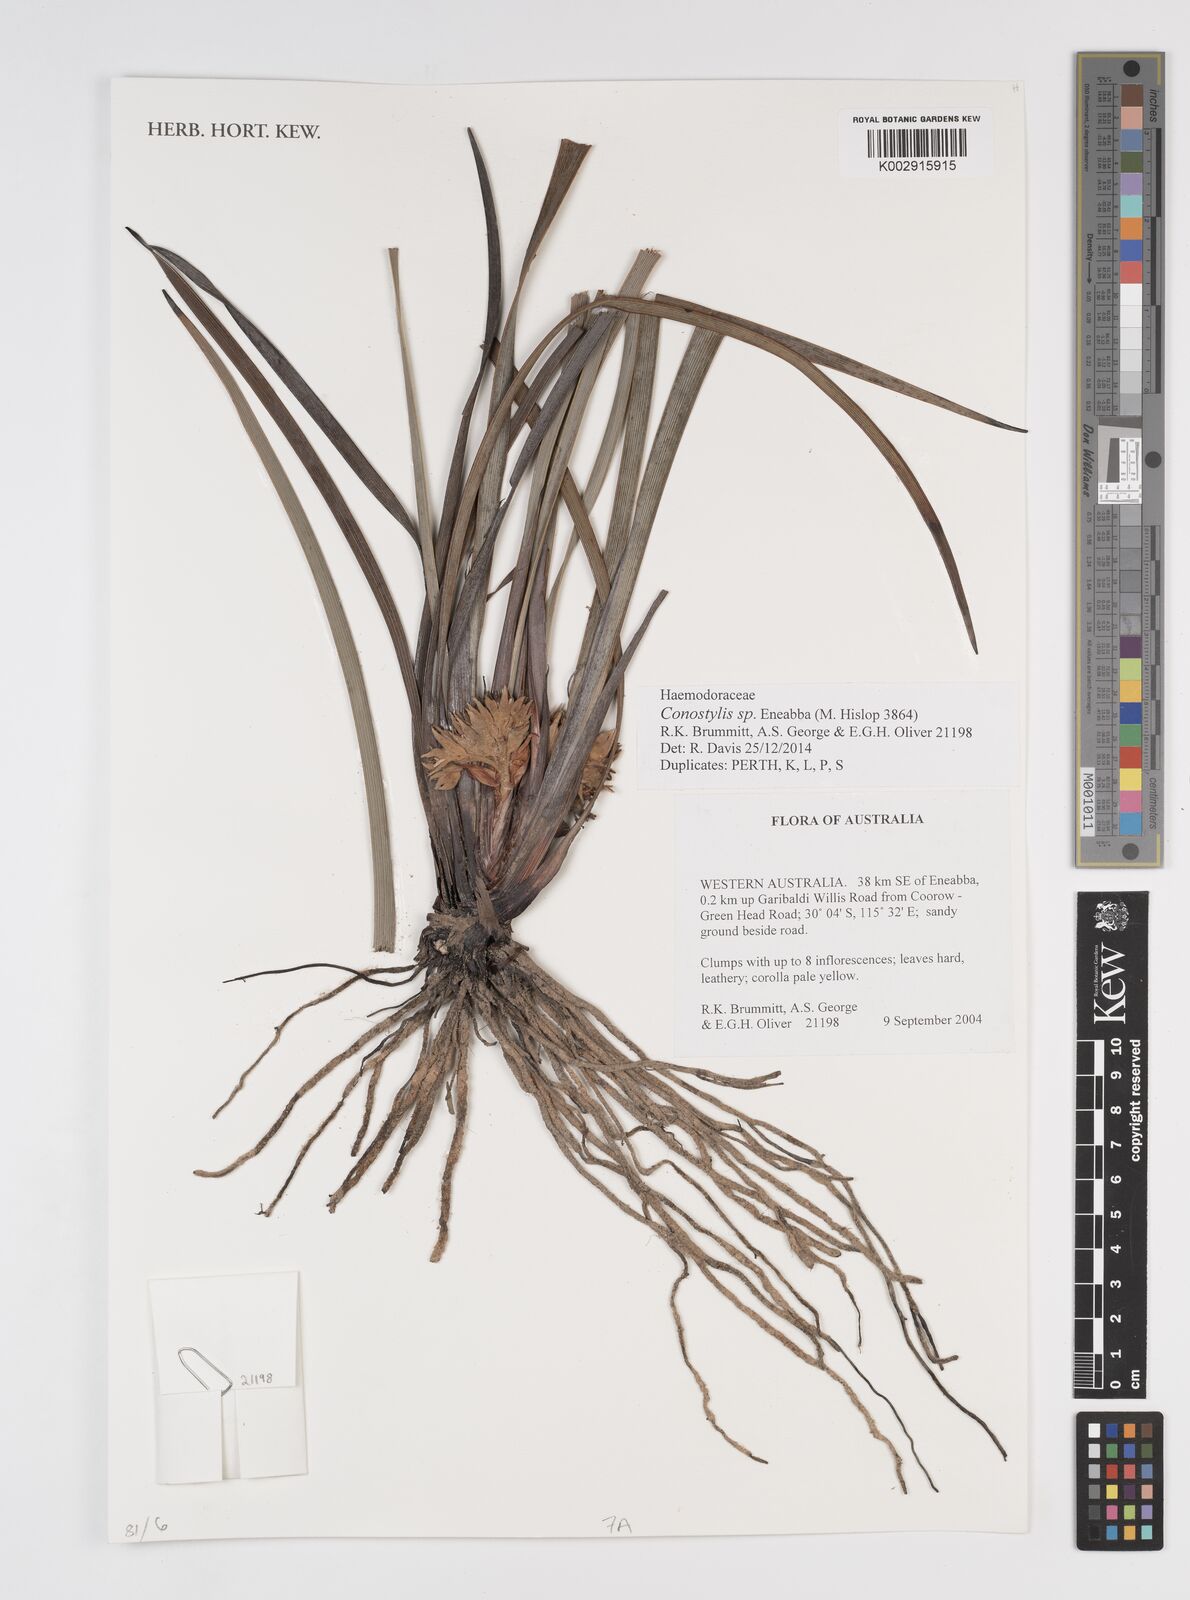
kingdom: Plantae
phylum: Tracheophyta
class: Liliopsida
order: Commelinales
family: Haemodoraceae
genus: Conostylis
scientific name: Conostylis
